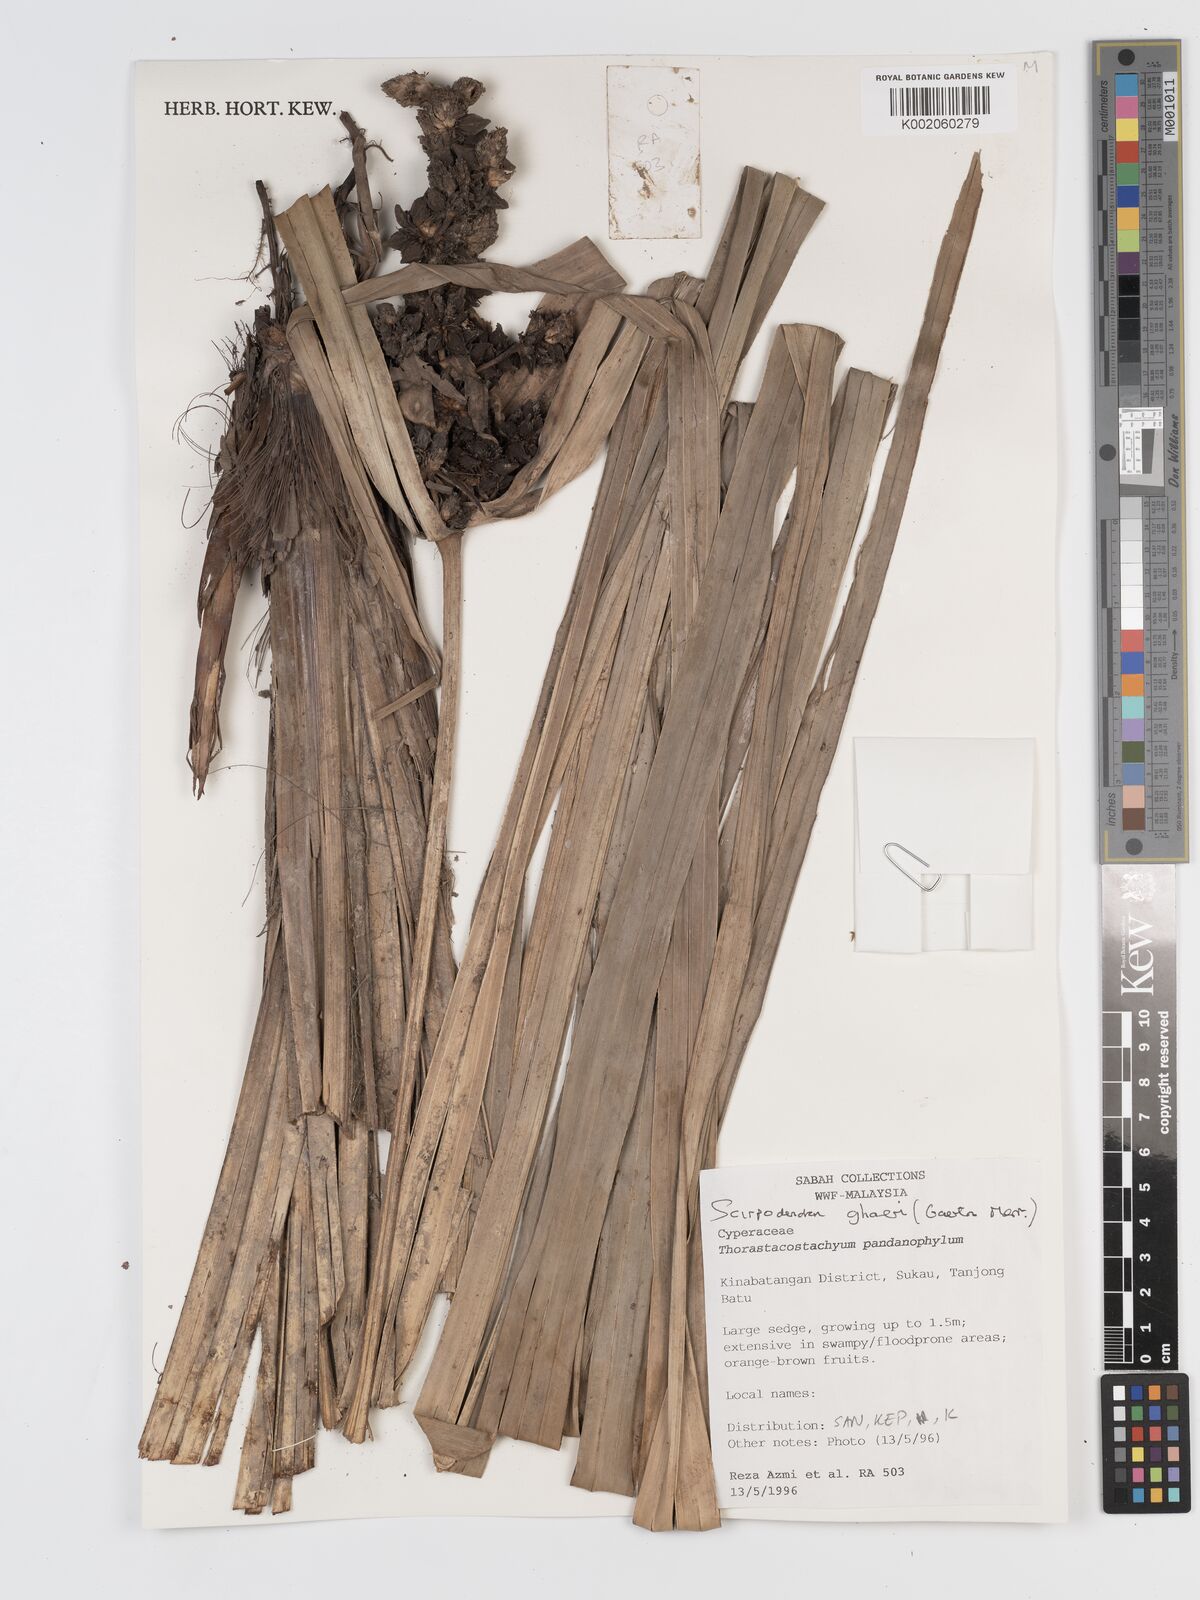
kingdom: Plantae
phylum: Tracheophyta
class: Liliopsida
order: Poales
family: Cyperaceae
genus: Scirpodendron
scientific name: Scirpodendron ghaeri
